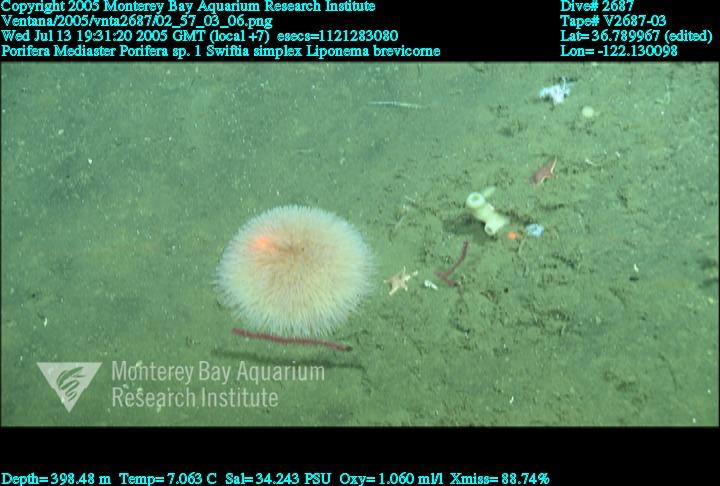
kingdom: Animalia
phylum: Porifera
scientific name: Porifera
